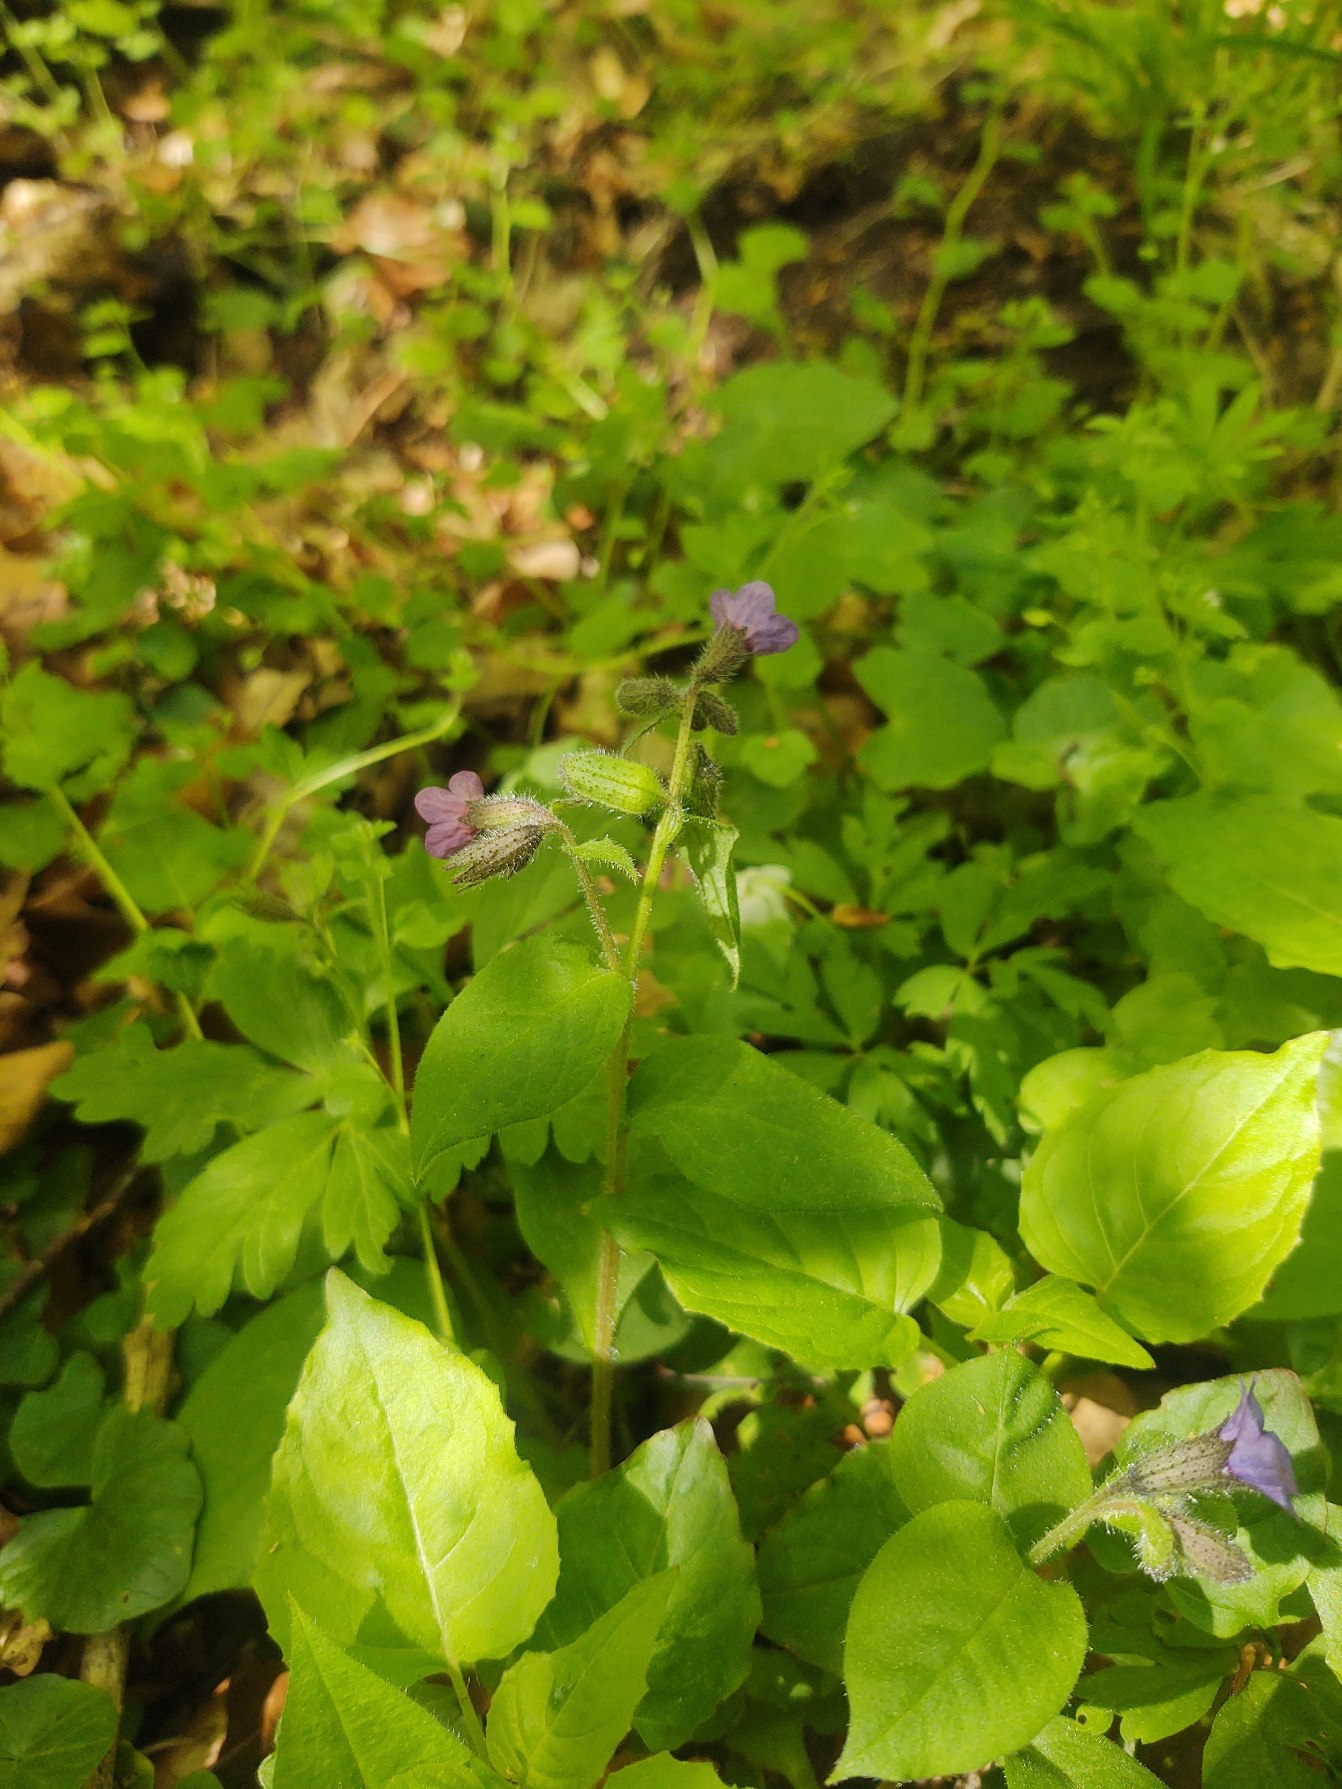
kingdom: Plantae
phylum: Tracheophyta
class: Magnoliopsida
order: Boraginales
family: Boraginaceae
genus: Pulmonaria
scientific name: Pulmonaria obscura
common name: Almindelig lungeurt
